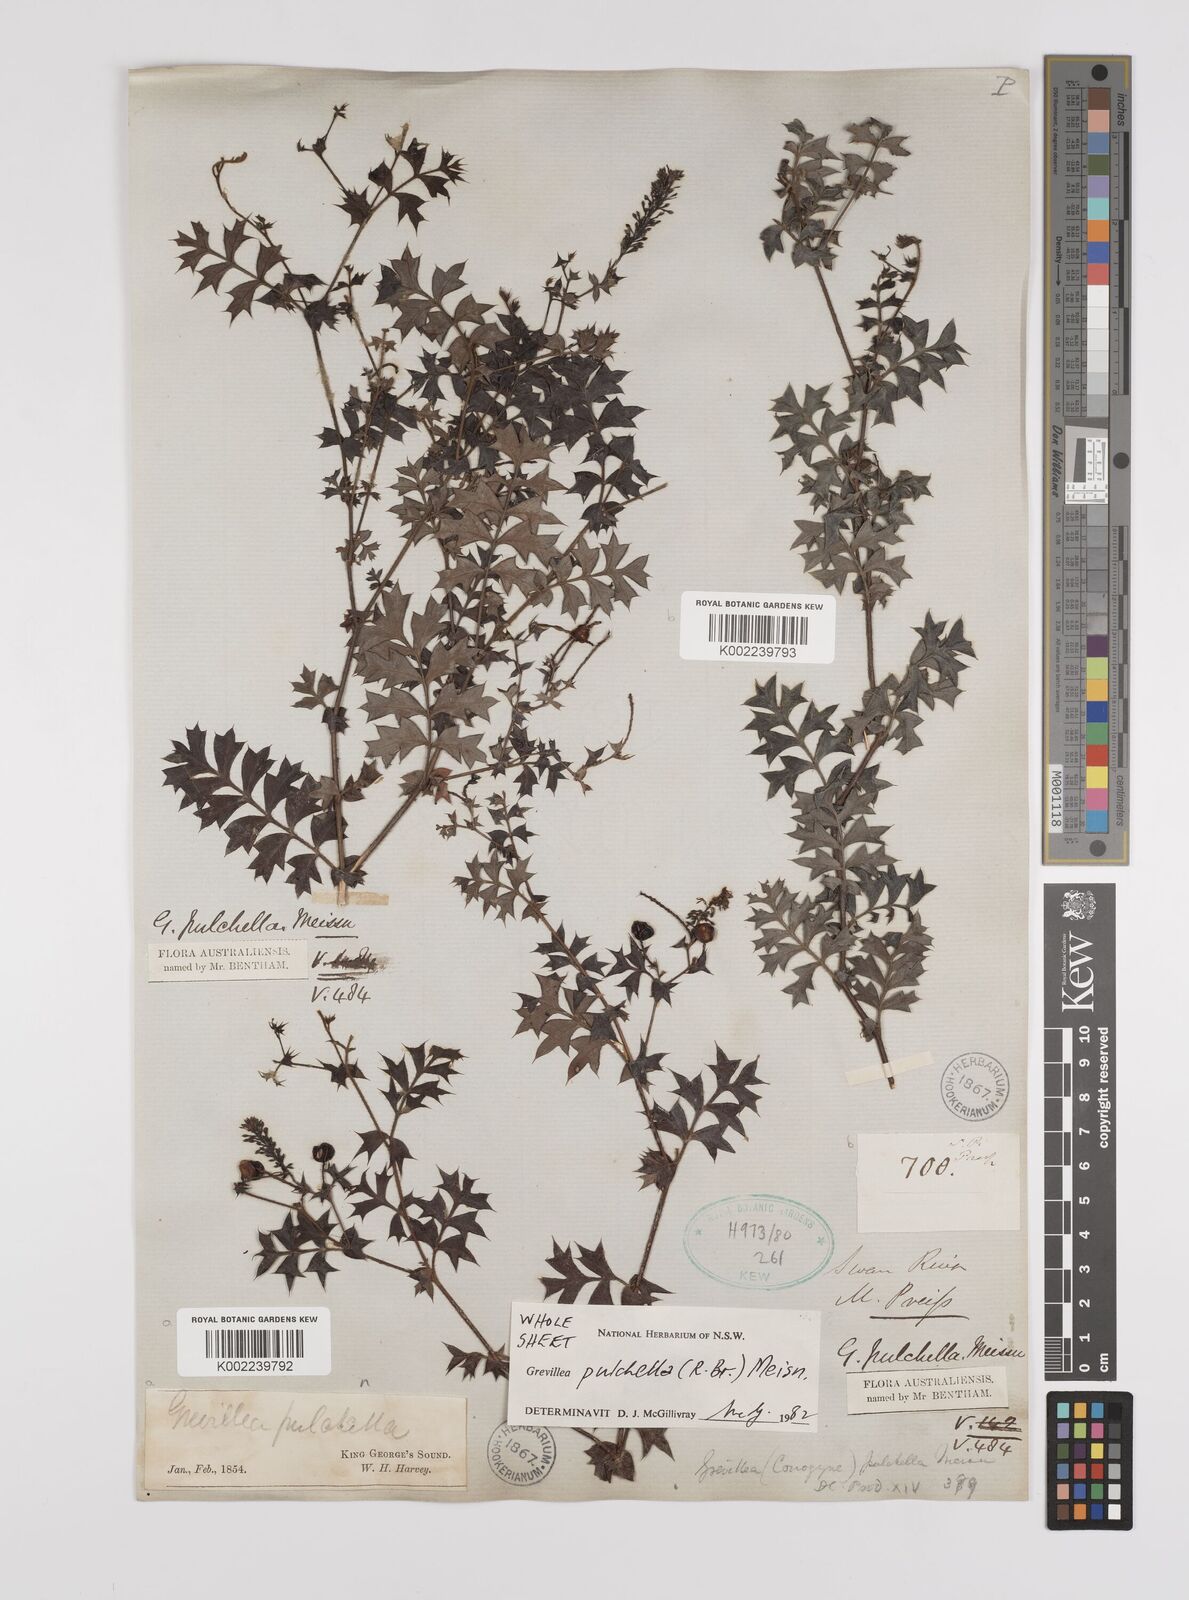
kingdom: Plantae
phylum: Tracheophyta
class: Magnoliopsida
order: Proteales
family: Proteaceae
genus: Grevillea
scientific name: Grevillea pulchella
